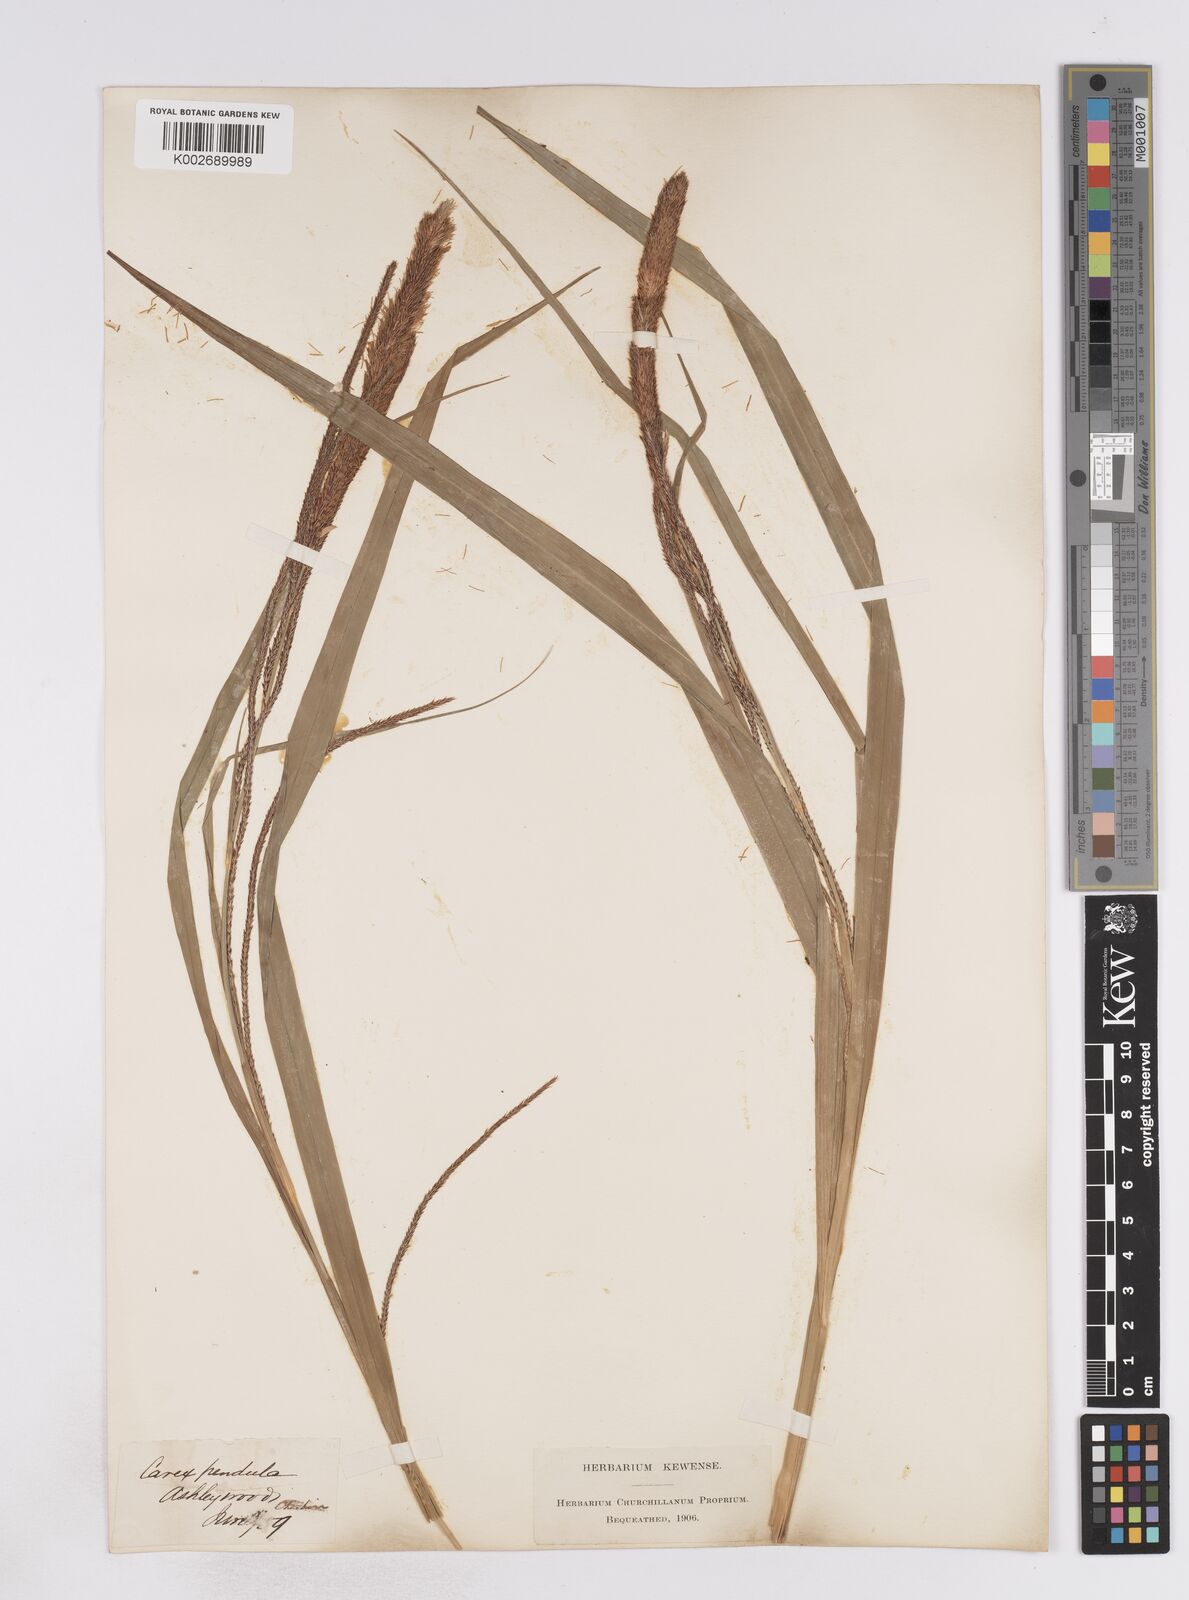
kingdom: Plantae
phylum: Tracheophyta
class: Liliopsida
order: Poales
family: Cyperaceae
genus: Carex
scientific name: Carex pendula
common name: Pendulous sedge
